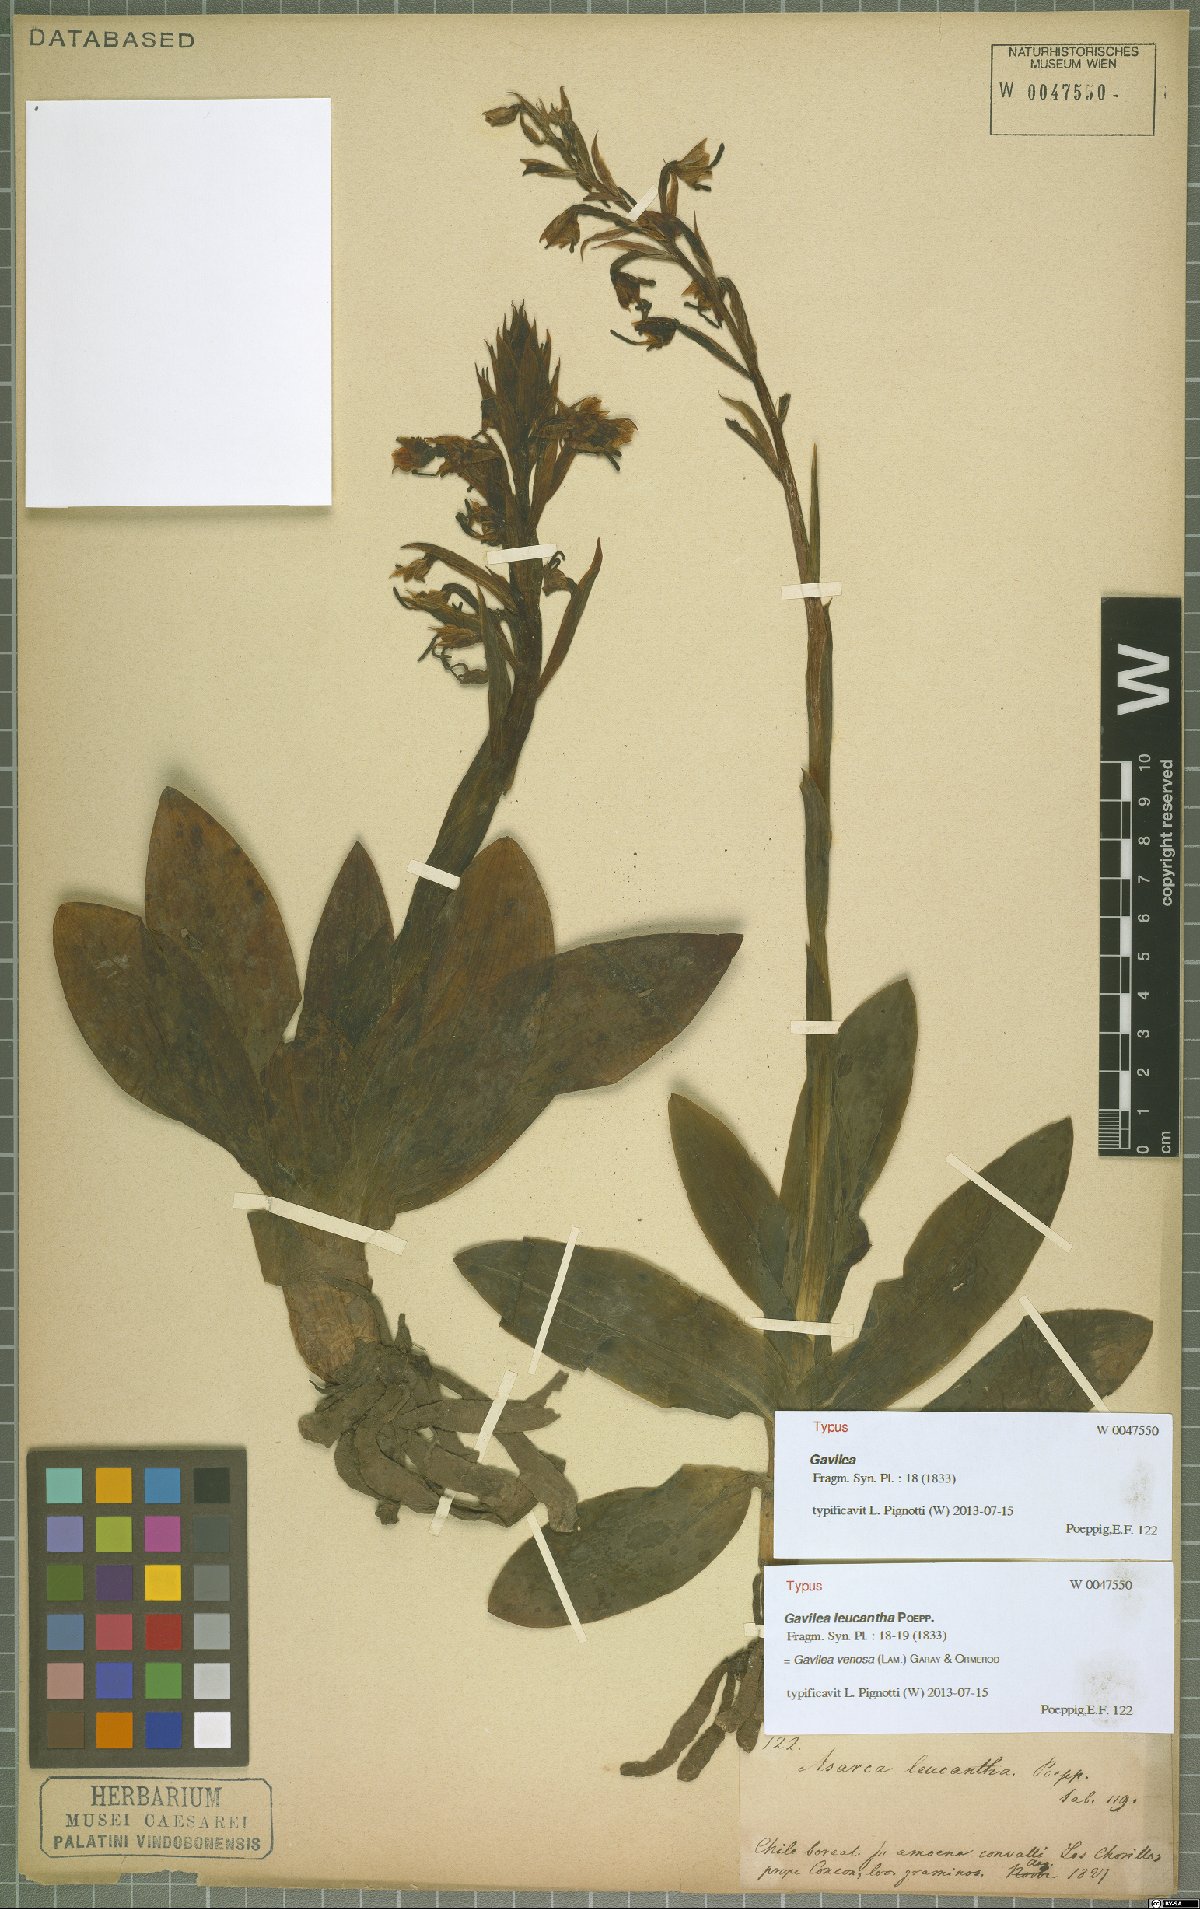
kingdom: Plantae
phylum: Tracheophyta
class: Liliopsida
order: Asparagales
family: Orchidaceae
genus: Gavilea
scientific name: Gavilea venosa
